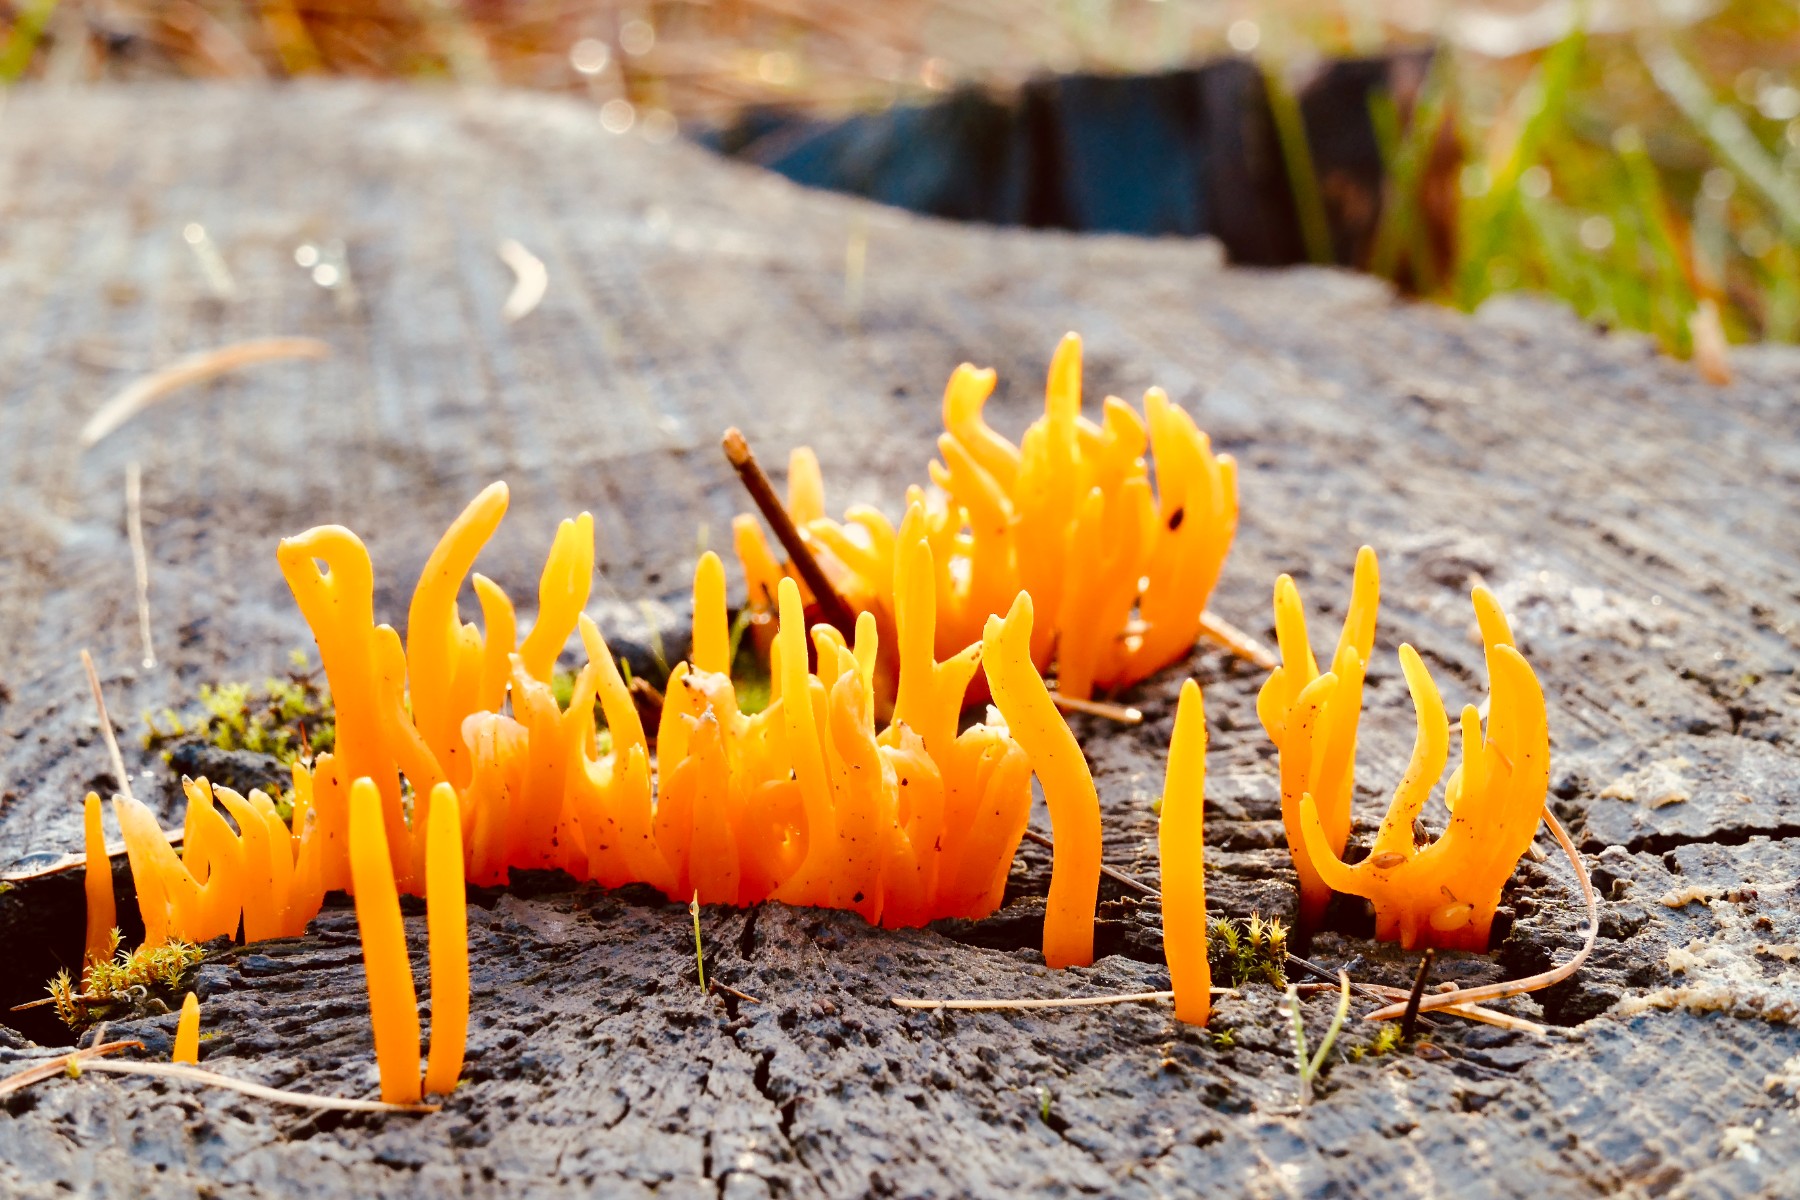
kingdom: Fungi
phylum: Basidiomycota
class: Dacrymycetes
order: Dacrymycetales
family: Dacrymycetaceae
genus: Calocera
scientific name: Calocera viscosa
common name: almindelig guldgaffel
